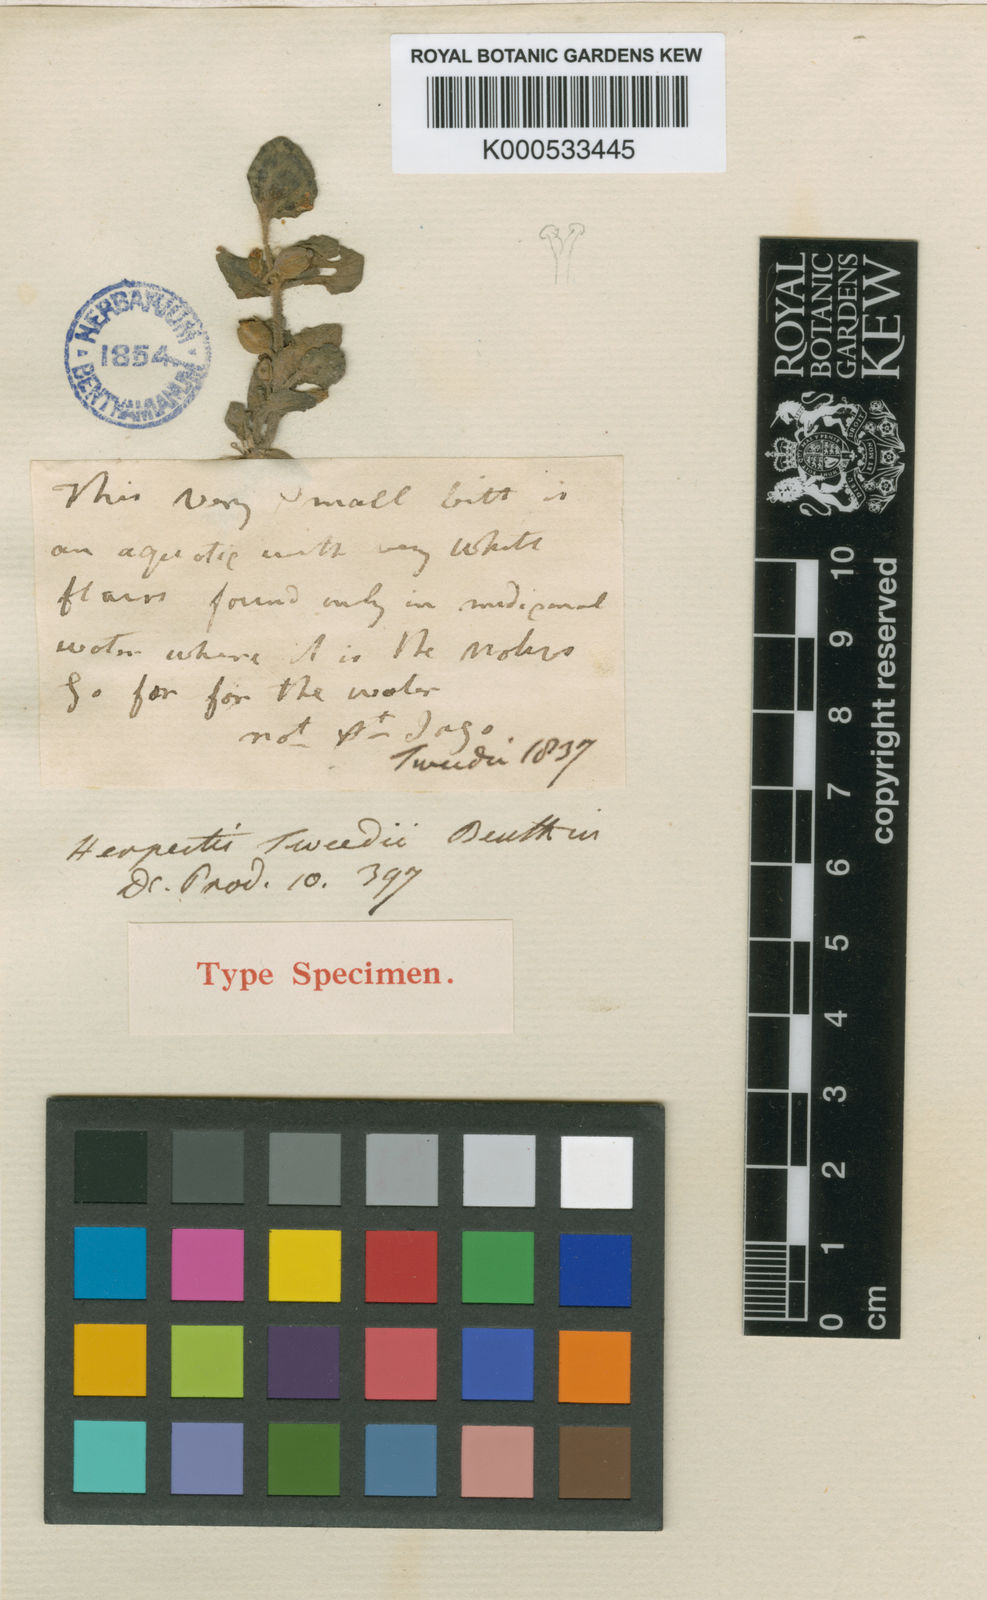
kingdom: Plantae
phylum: Tracheophyta
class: Magnoliopsida
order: Lamiales
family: Plantaginaceae
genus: Bacopa
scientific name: Bacopa rotundifolia
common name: Disc water hyssop
